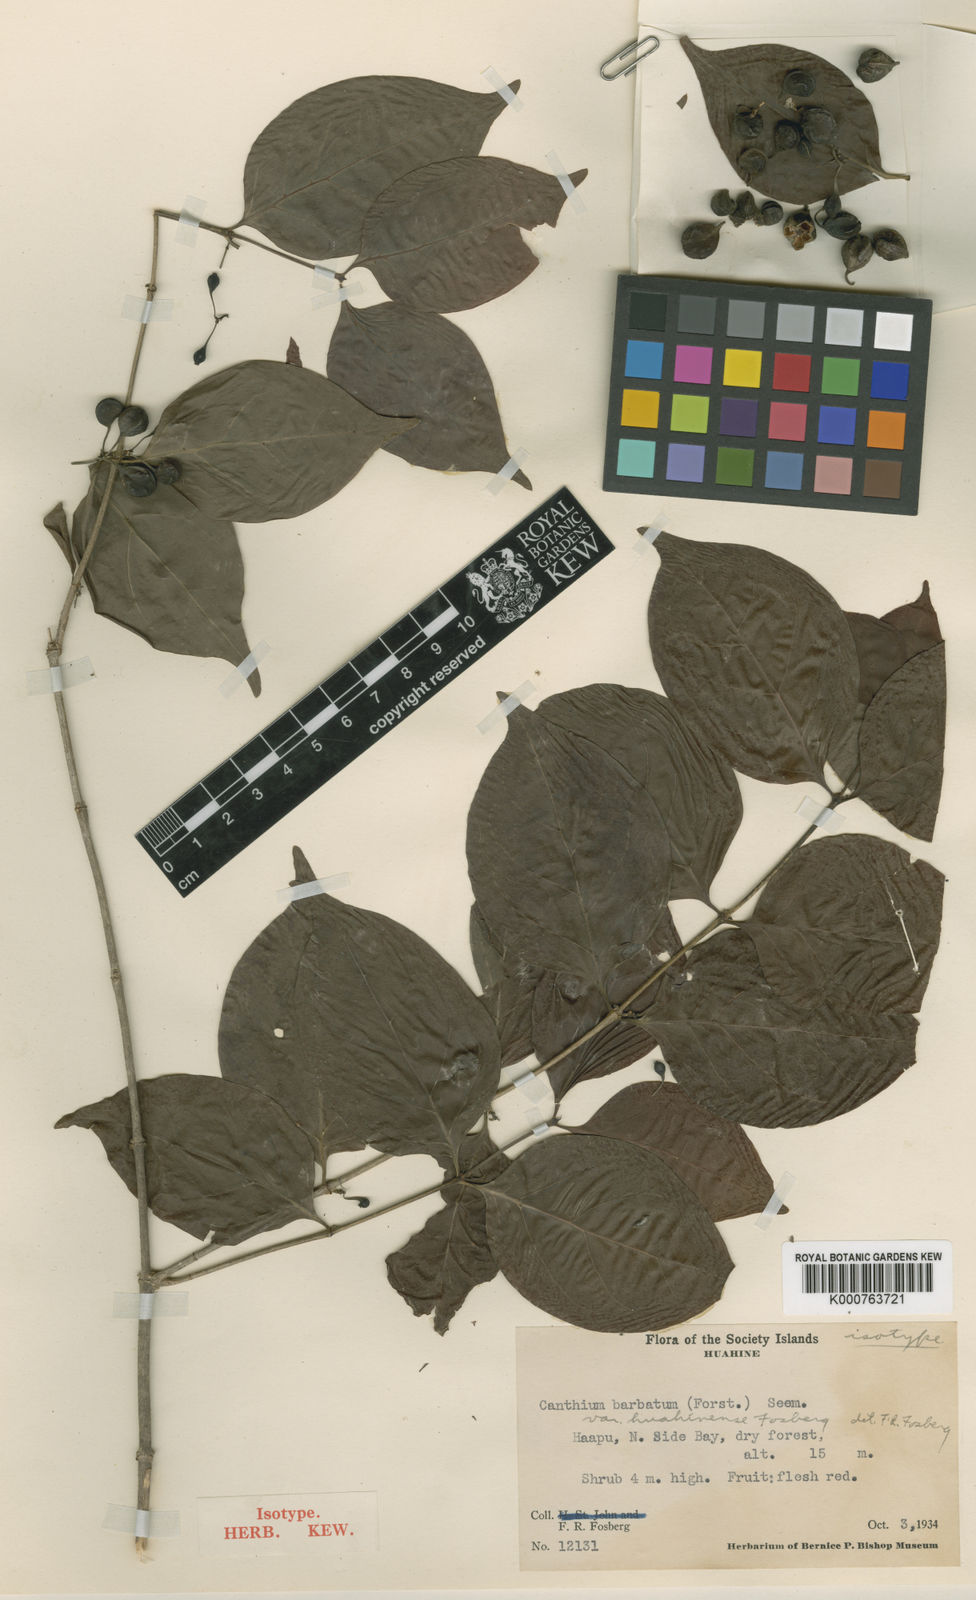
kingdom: Plantae
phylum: Tracheophyta
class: Magnoliopsida
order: Gentianales
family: Rubiaceae
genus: Cyclophyllum
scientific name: Cyclophyllum
